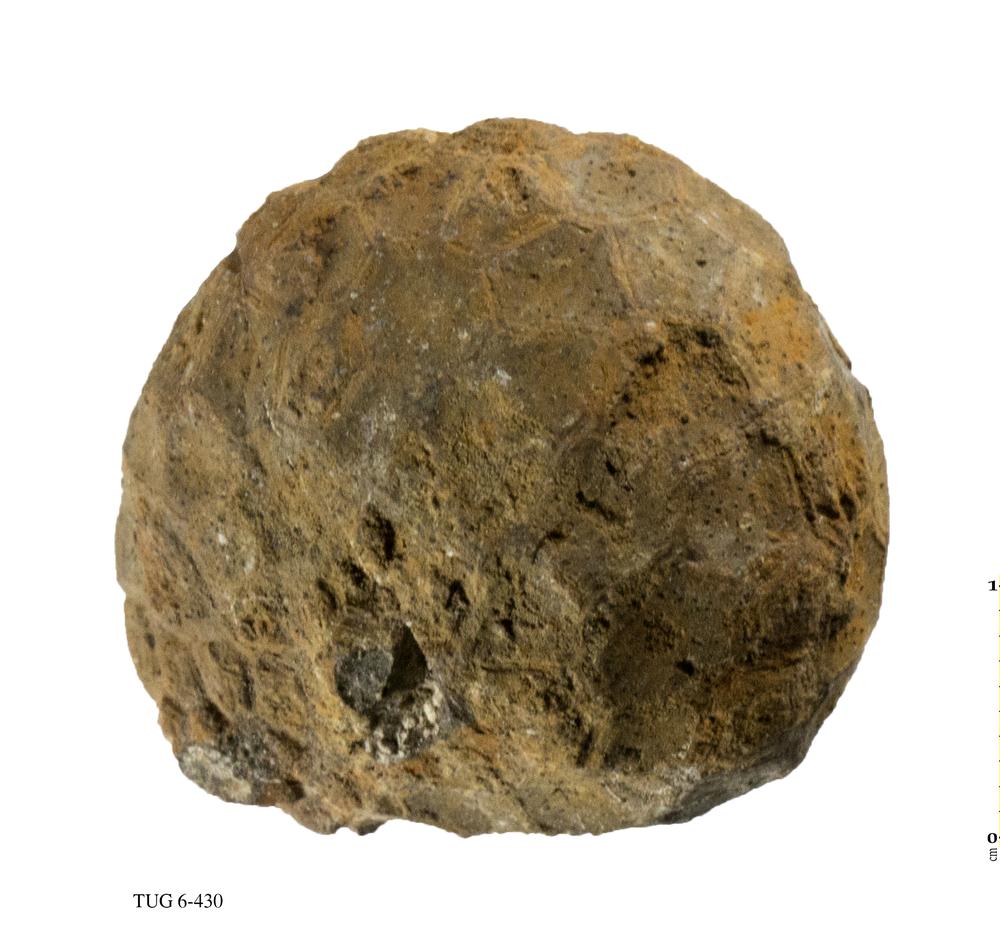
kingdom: Animalia
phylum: Echinodermata
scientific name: Echinodermata
